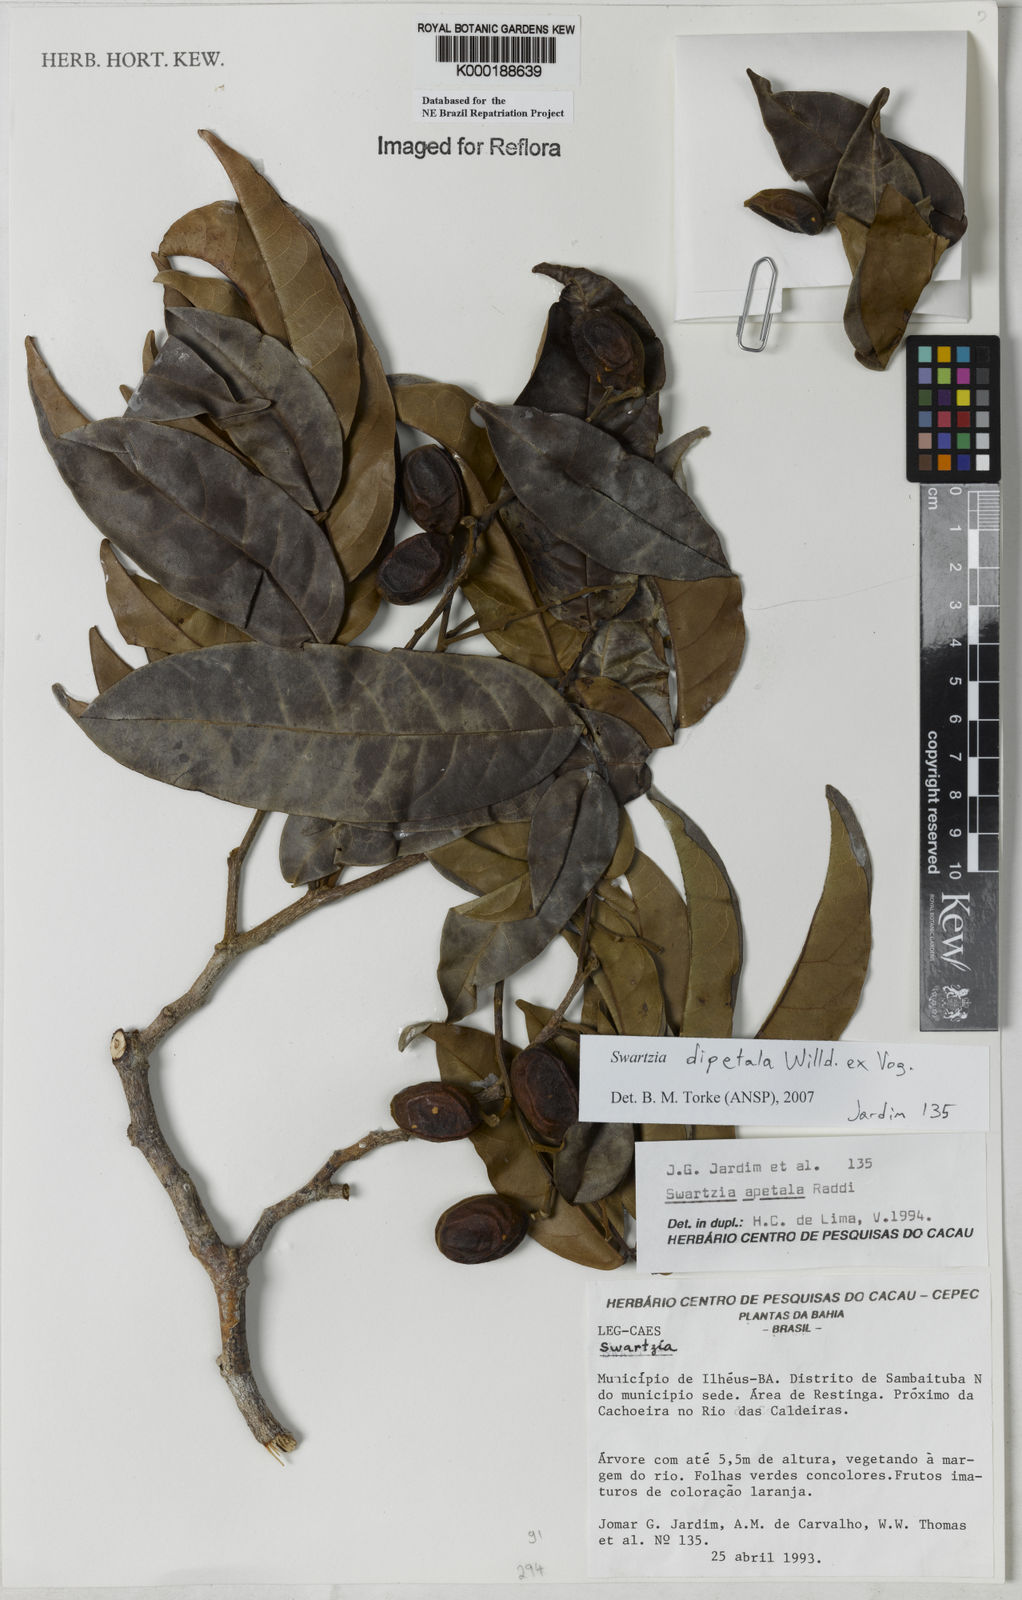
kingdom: Plantae
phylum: Tracheophyta
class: Magnoliopsida
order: Fabales
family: Fabaceae
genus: Swartzia
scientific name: Swartzia apetala
